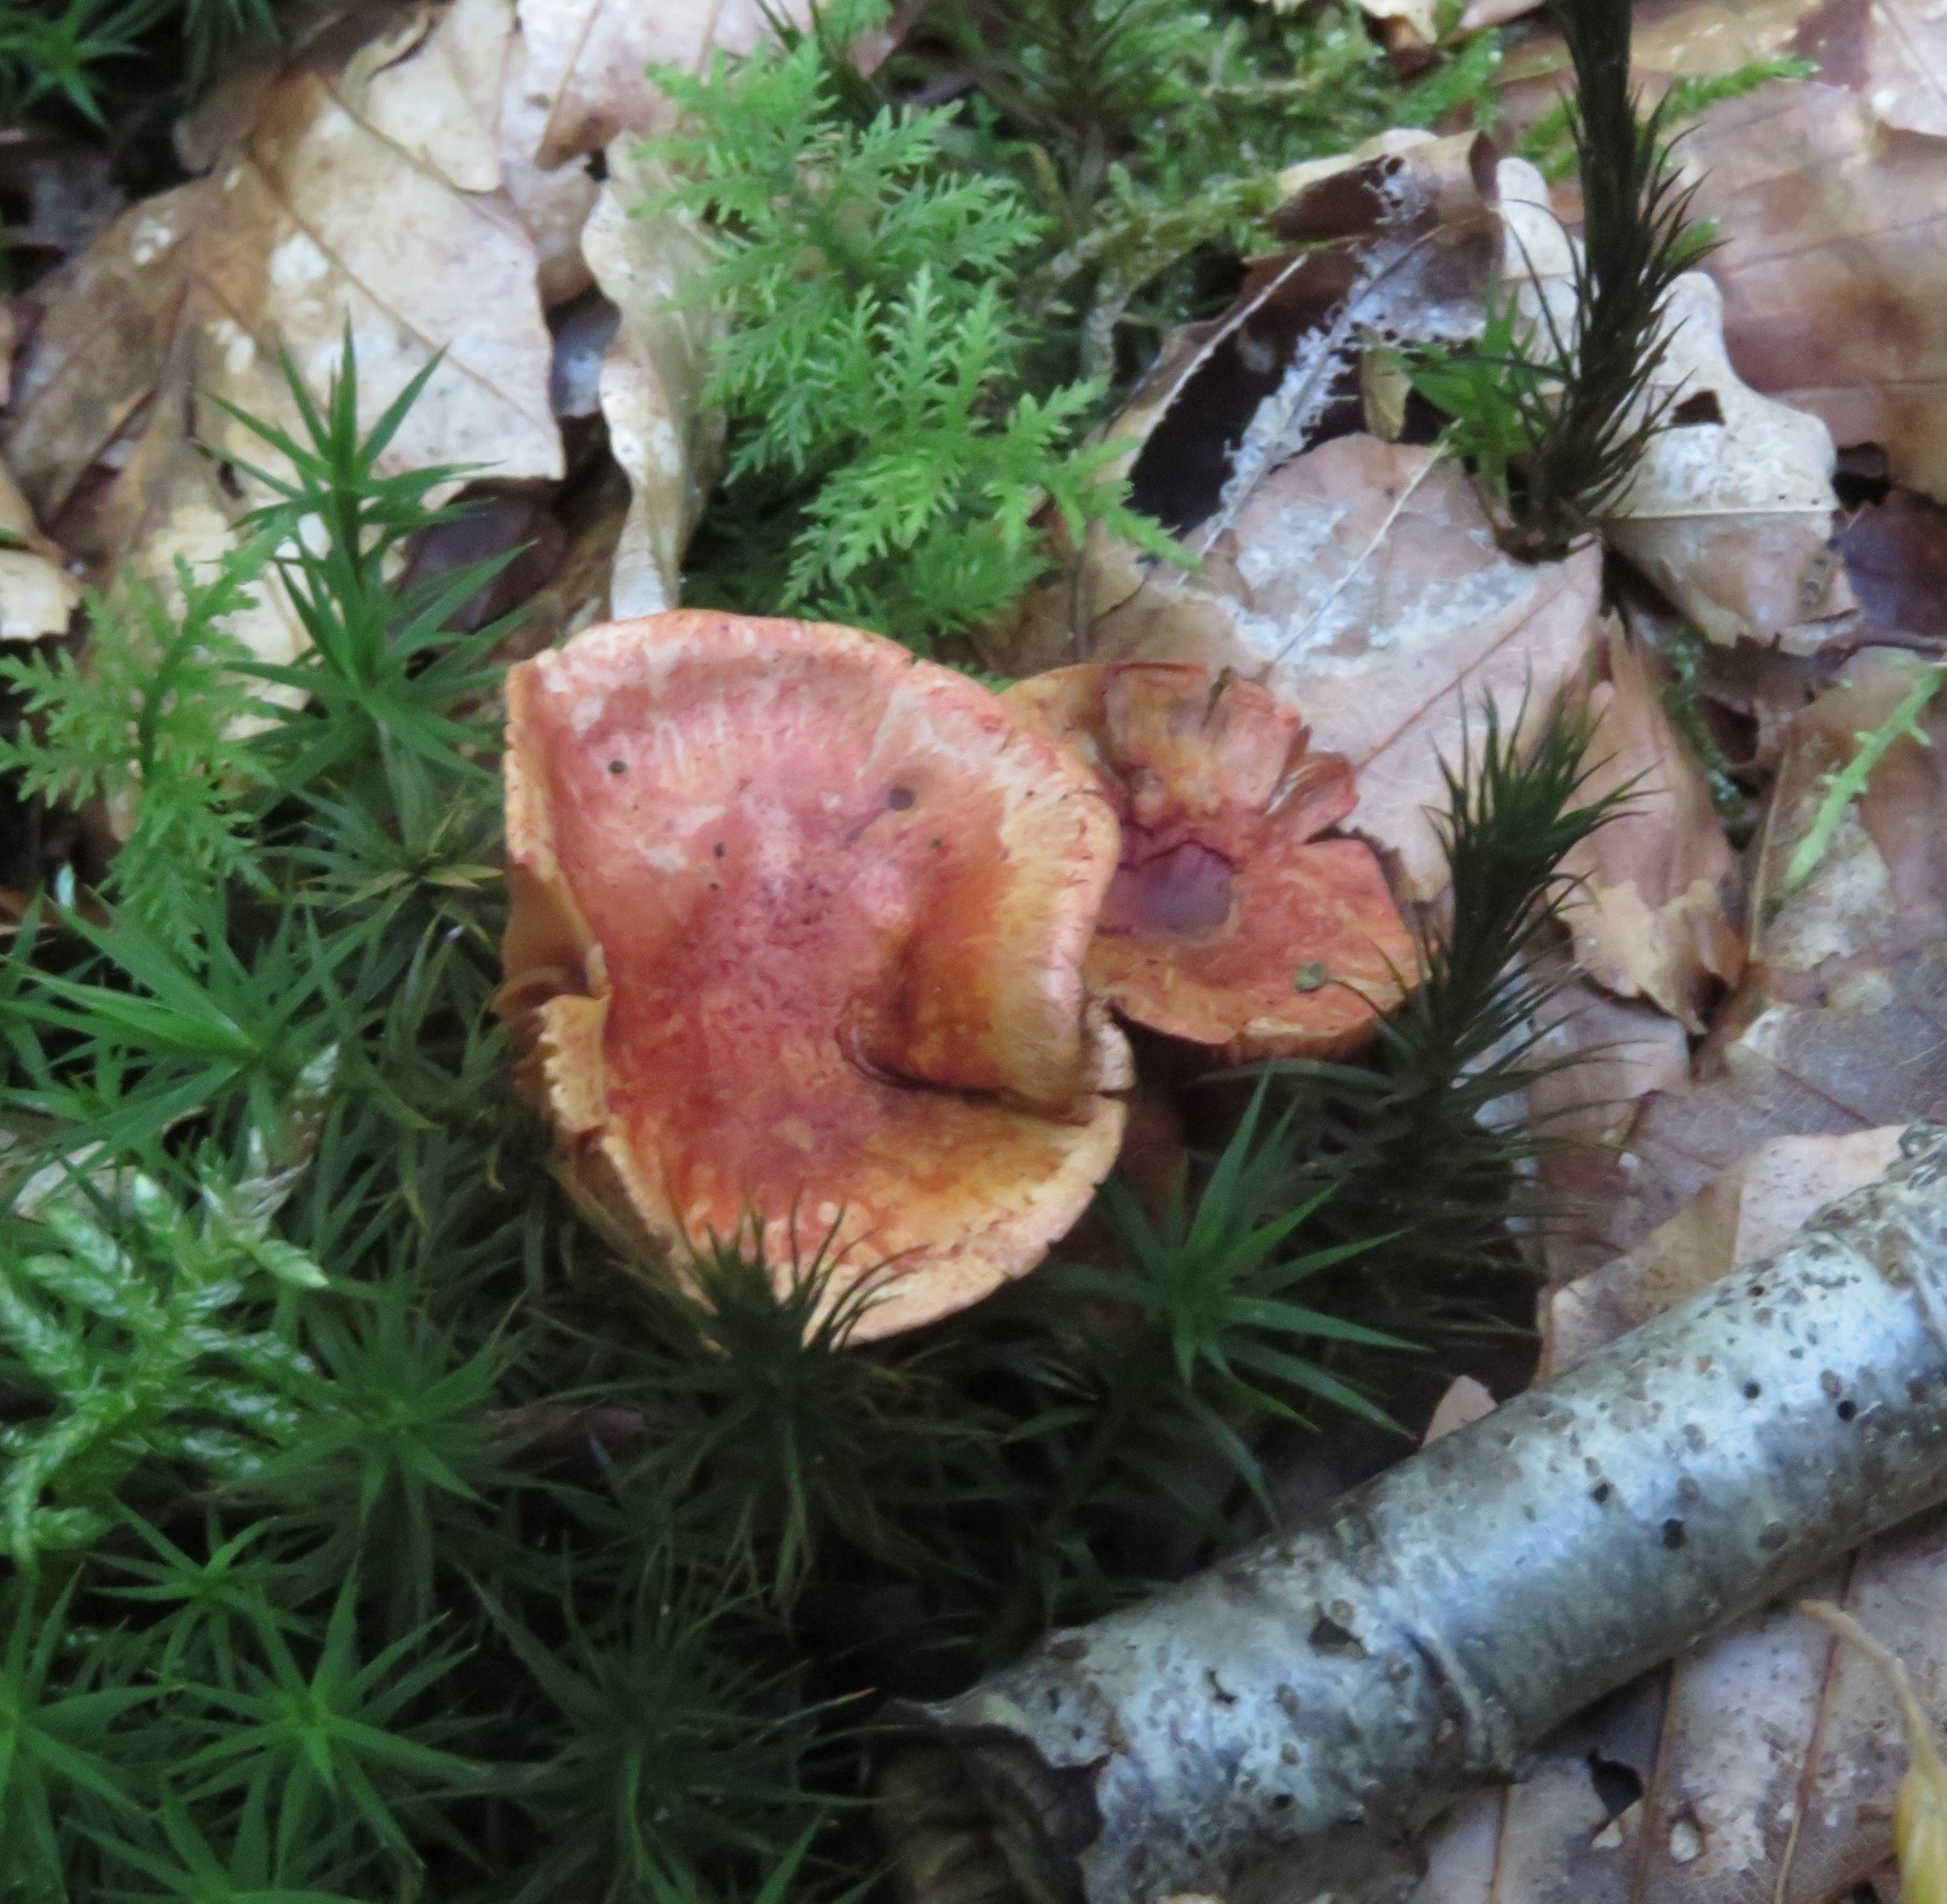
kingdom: Fungi
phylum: Basidiomycota
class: Agaricomycetes
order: Agaricales
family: Cortinariaceae
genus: Cortinarius
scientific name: Cortinarius bolaris
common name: Cinnoberskællet slørhat
